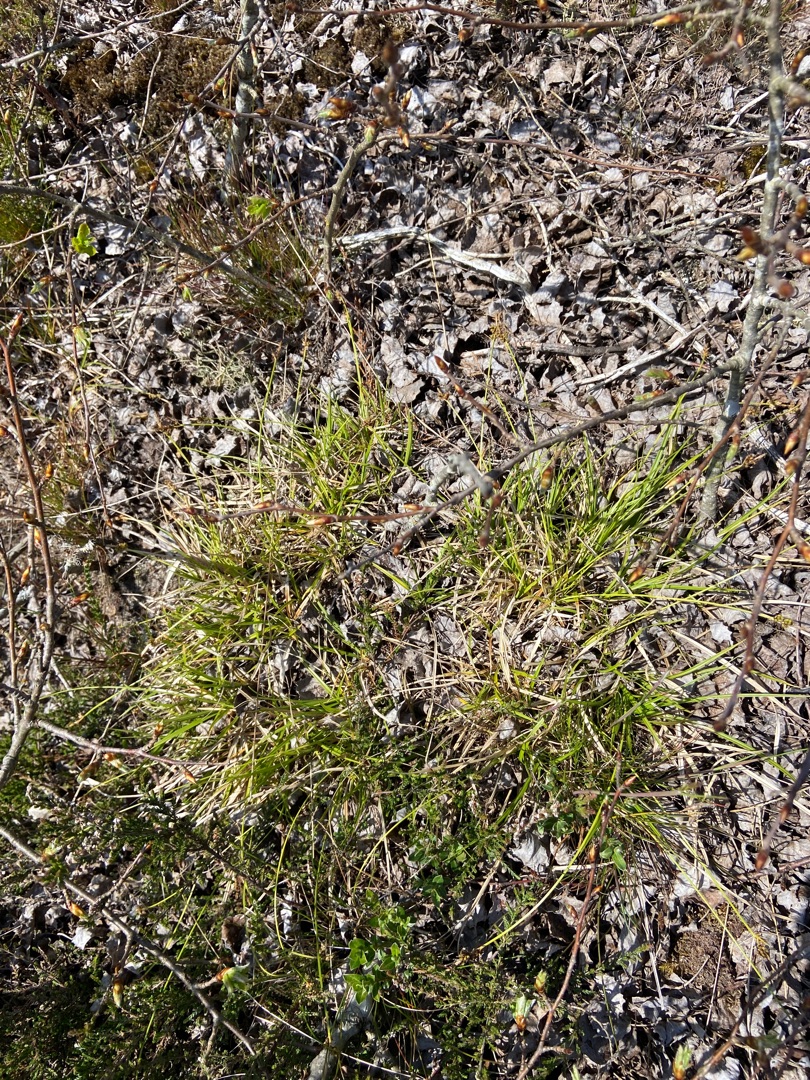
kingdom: Plantae
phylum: Tracheophyta
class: Liliopsida
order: Poales
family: Cyperaceae
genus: Carex
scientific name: Carex pilulifera
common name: Pille-star
